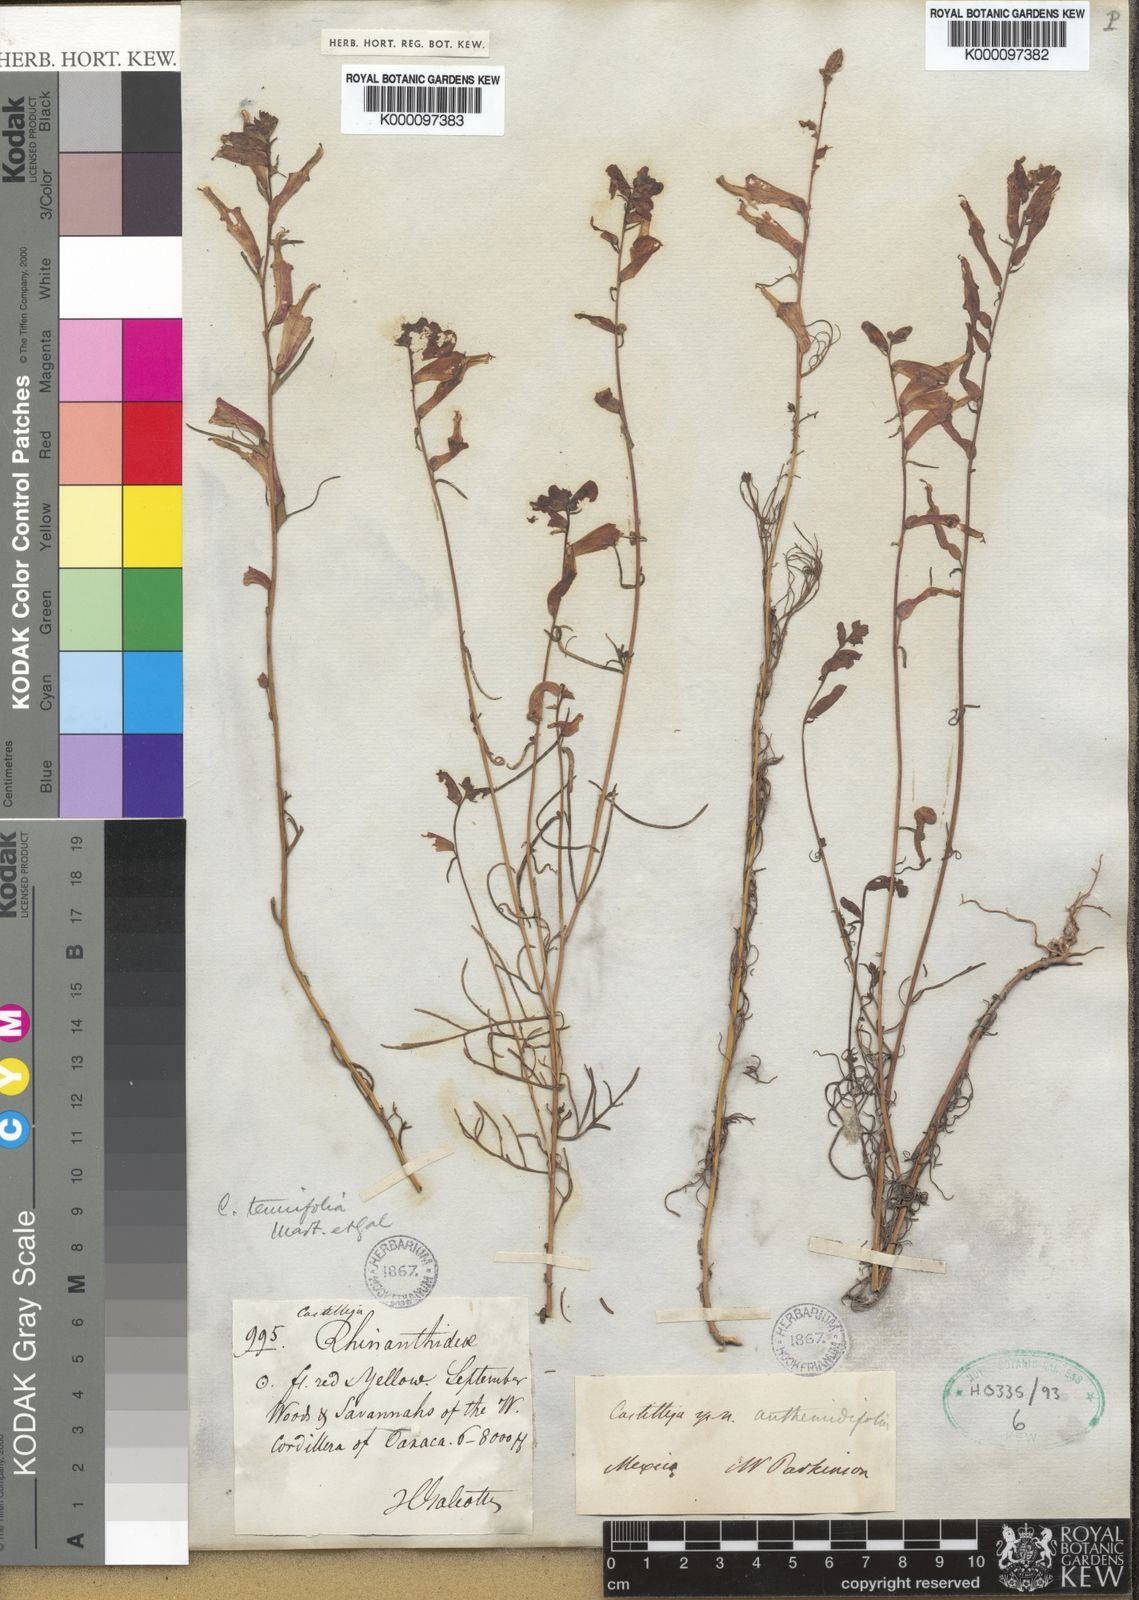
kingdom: Plantae
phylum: Tracheophyta
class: Magnoliopsida
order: Lamiales
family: Orobanchaceae
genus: Castilleja
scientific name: Castilleja tenuifolia
